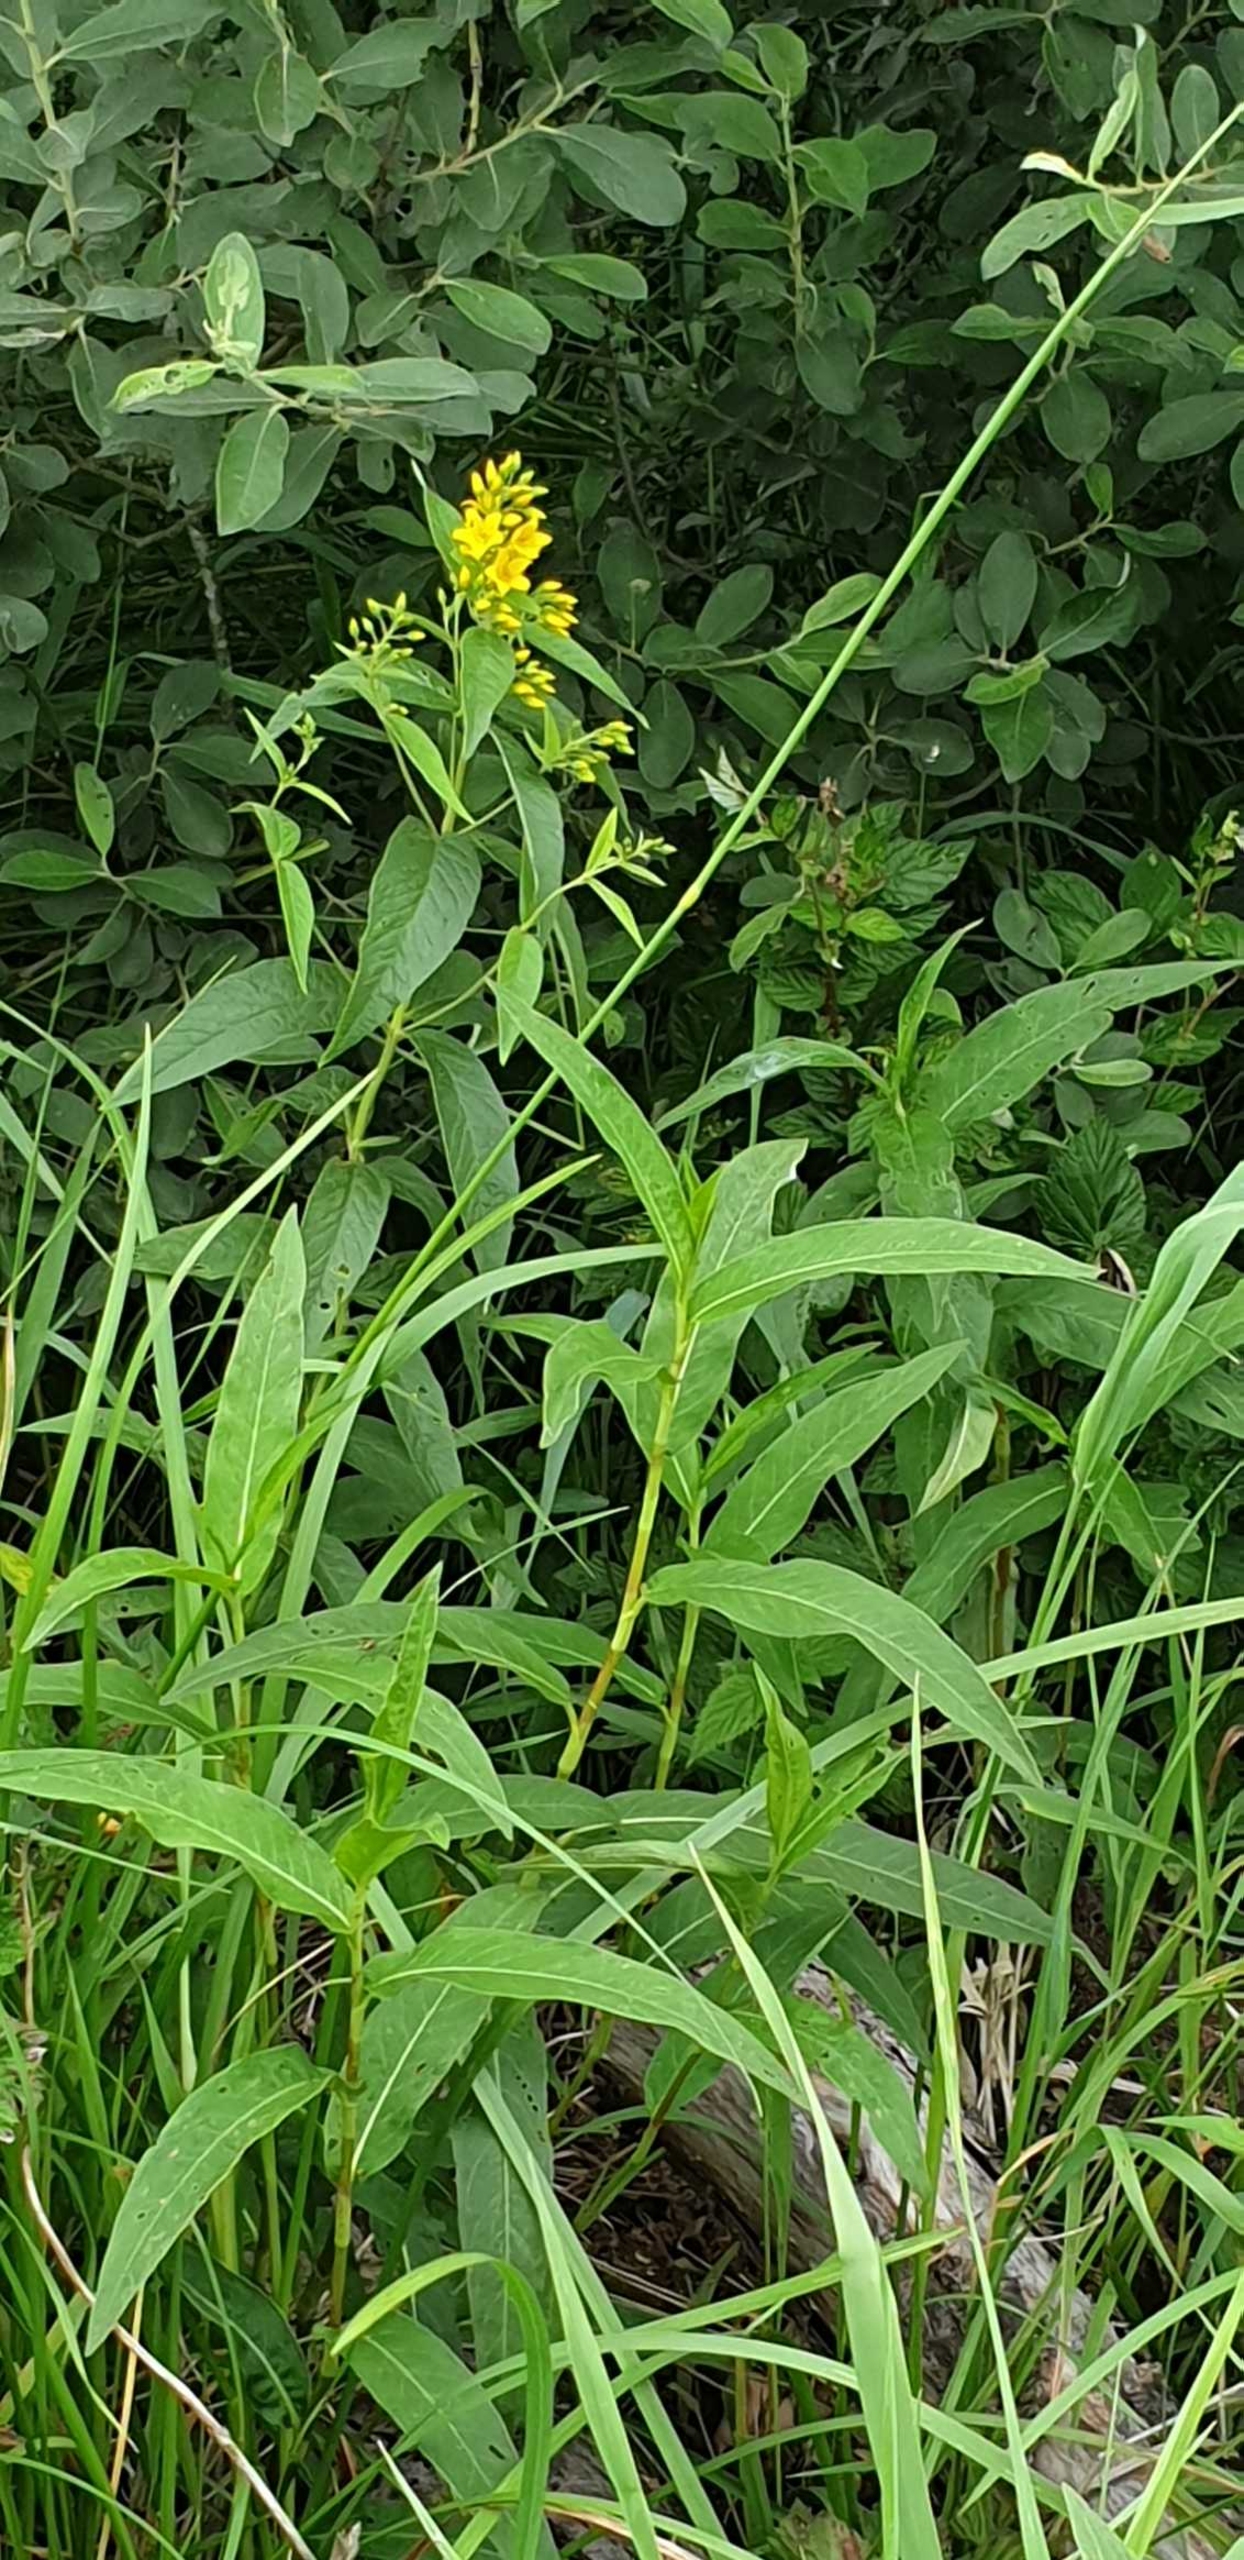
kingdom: Plantae
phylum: Tracheophyta
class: Magnoliopsida
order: Ericales
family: Primulaceae
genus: Lysimachia
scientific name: Lysimachia vulgaris
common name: Almindelig fredløs
